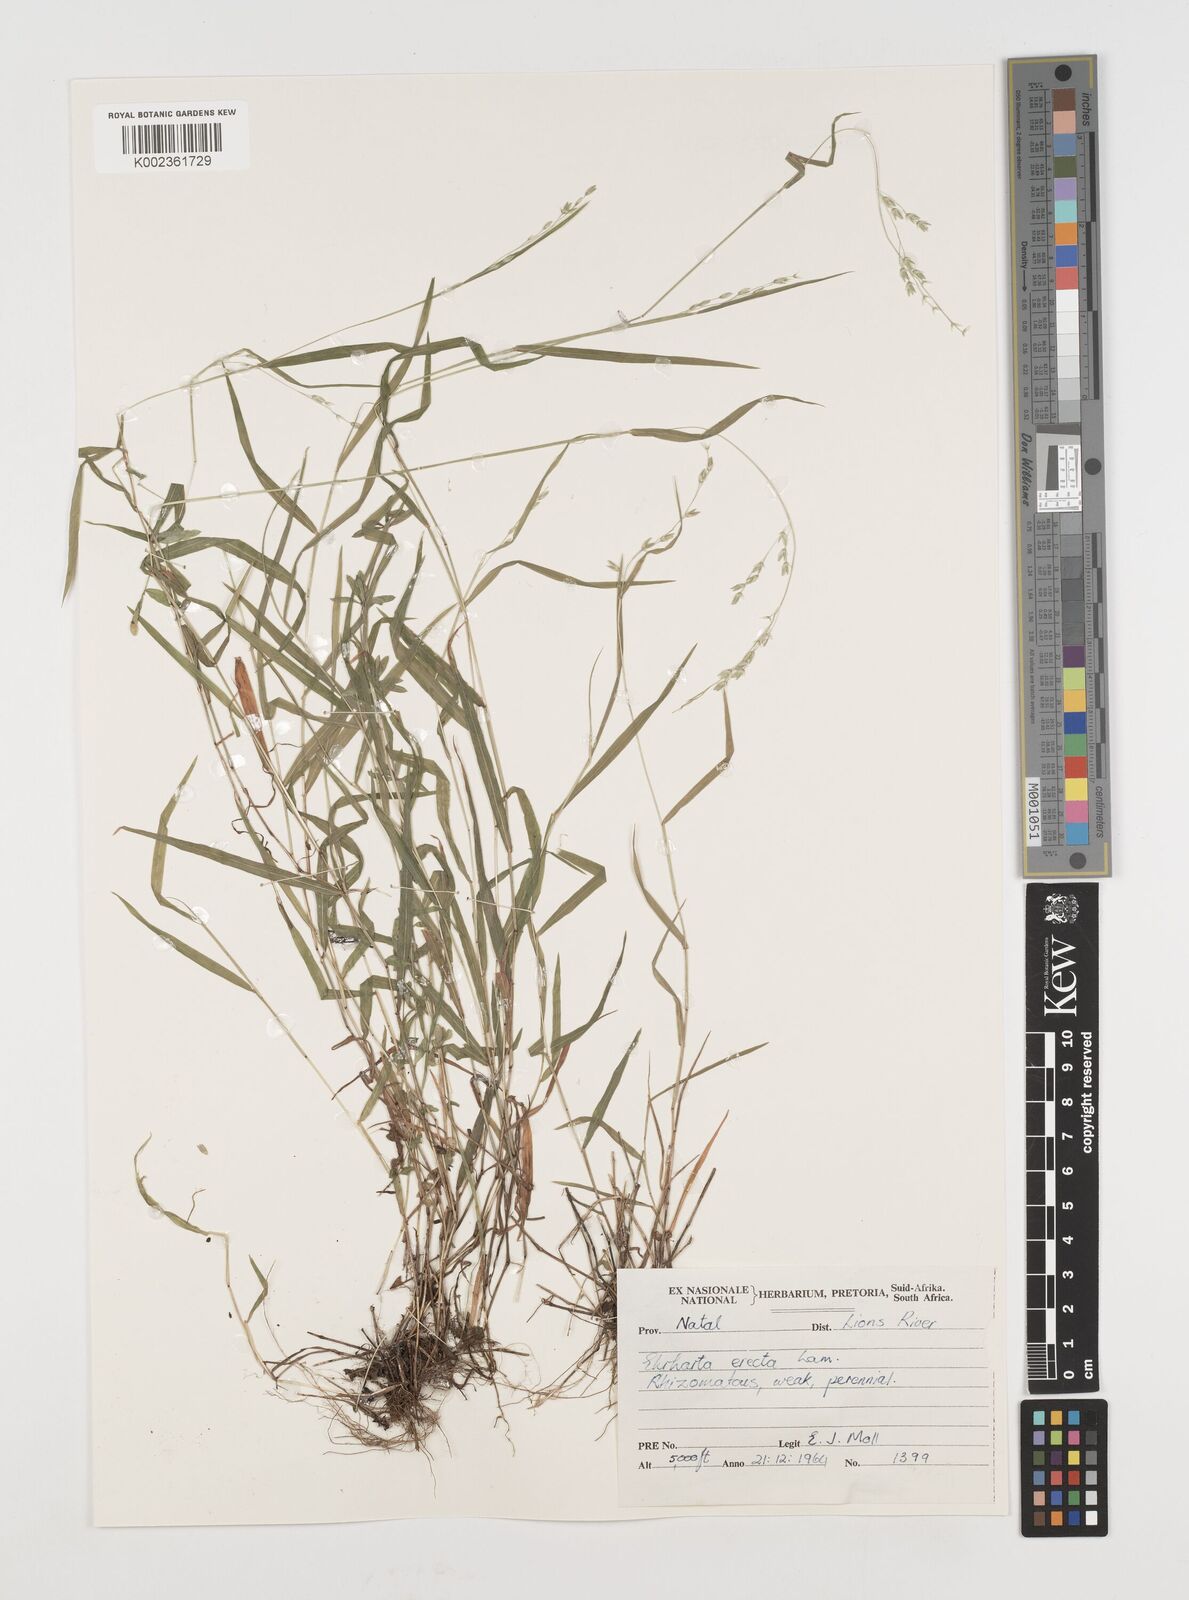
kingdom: Plantae
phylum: Tracheophyta
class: Liliopsida
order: Poales
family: Poaceae
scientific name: Poaceae
